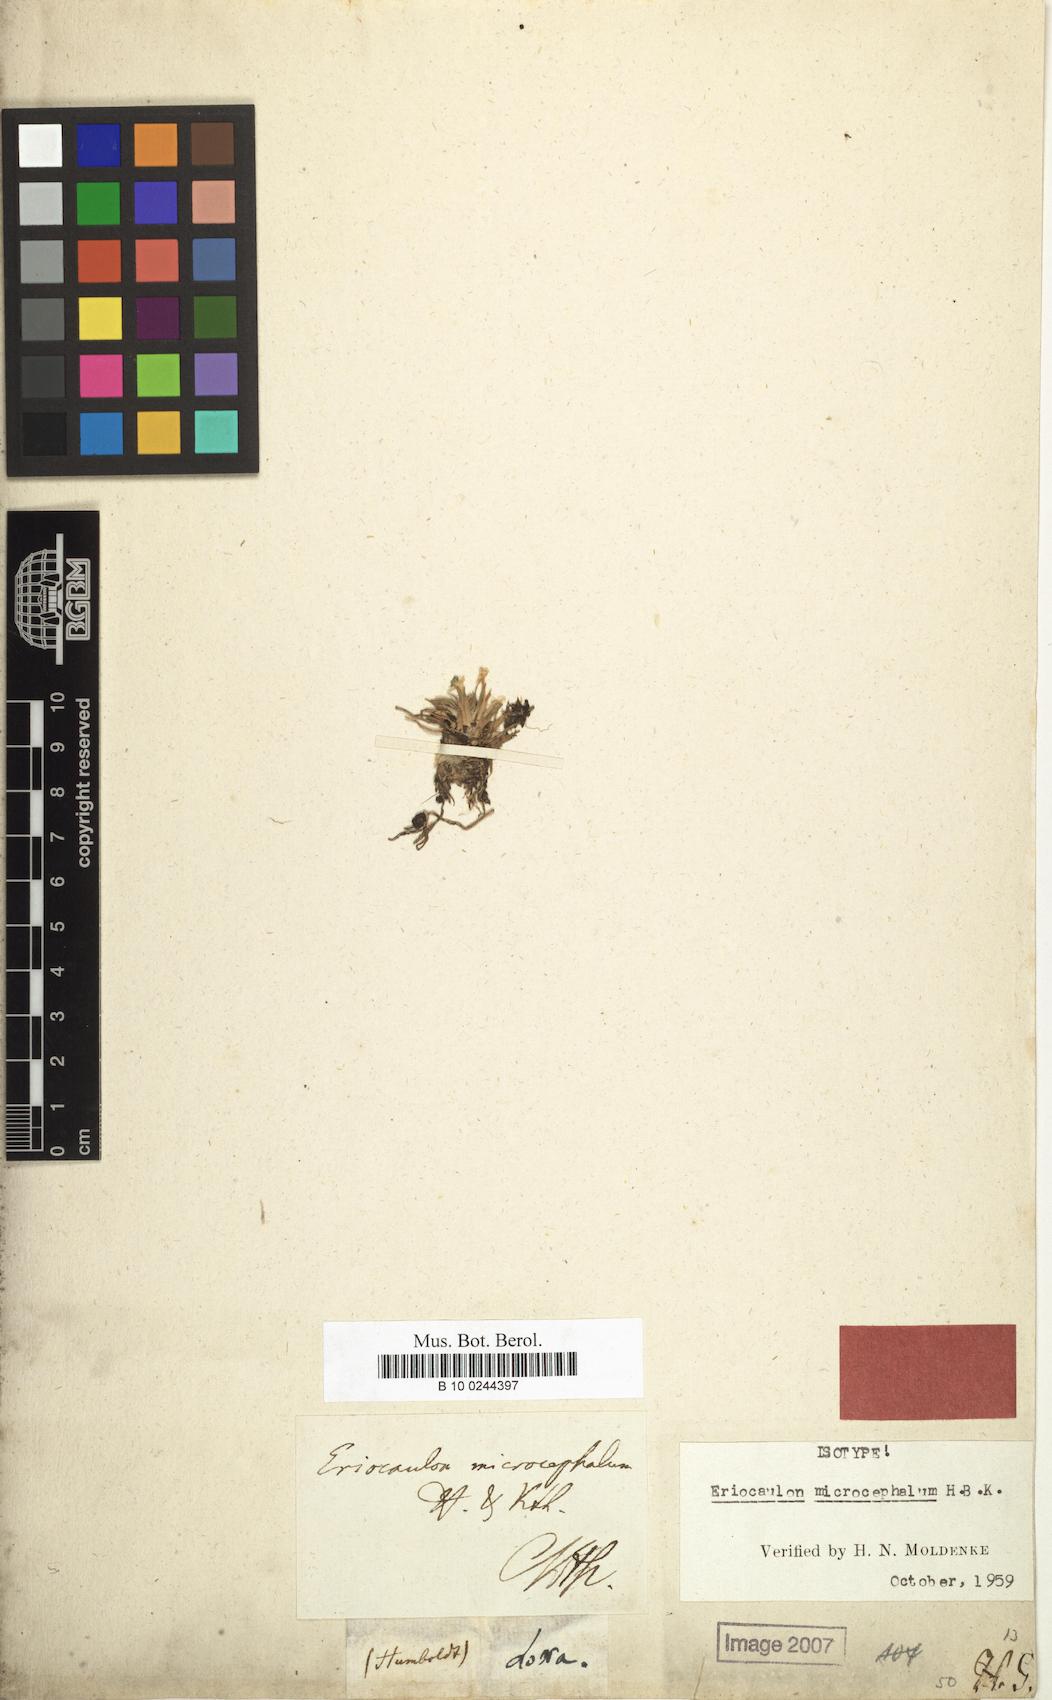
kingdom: Plantae
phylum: Tracheophyta
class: Liliopsida
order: Poales
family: Eriocaulaceae
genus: Eriocaulon
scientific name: Eriocaulon microcephalum
